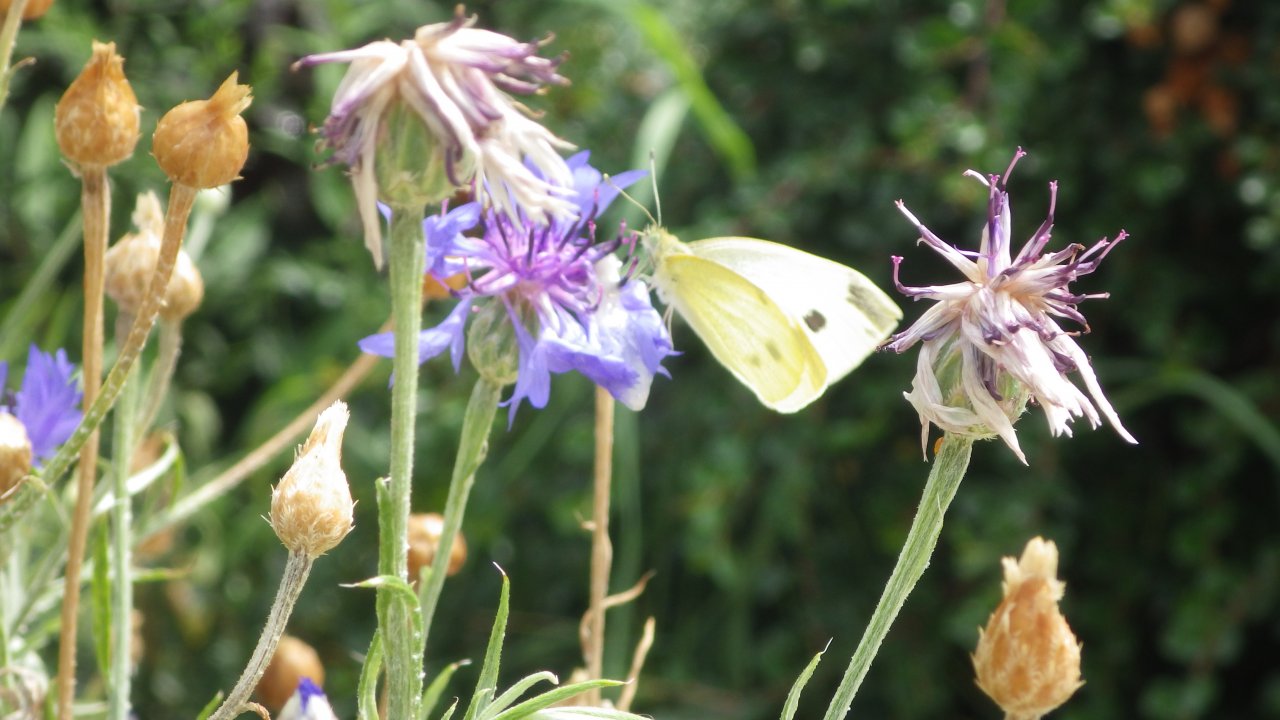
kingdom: Animalia
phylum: Arthropoda
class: Insecta
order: Lepidoptera
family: Pieridae
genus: Pieris
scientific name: Pieris rapae
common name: Cabbage White
